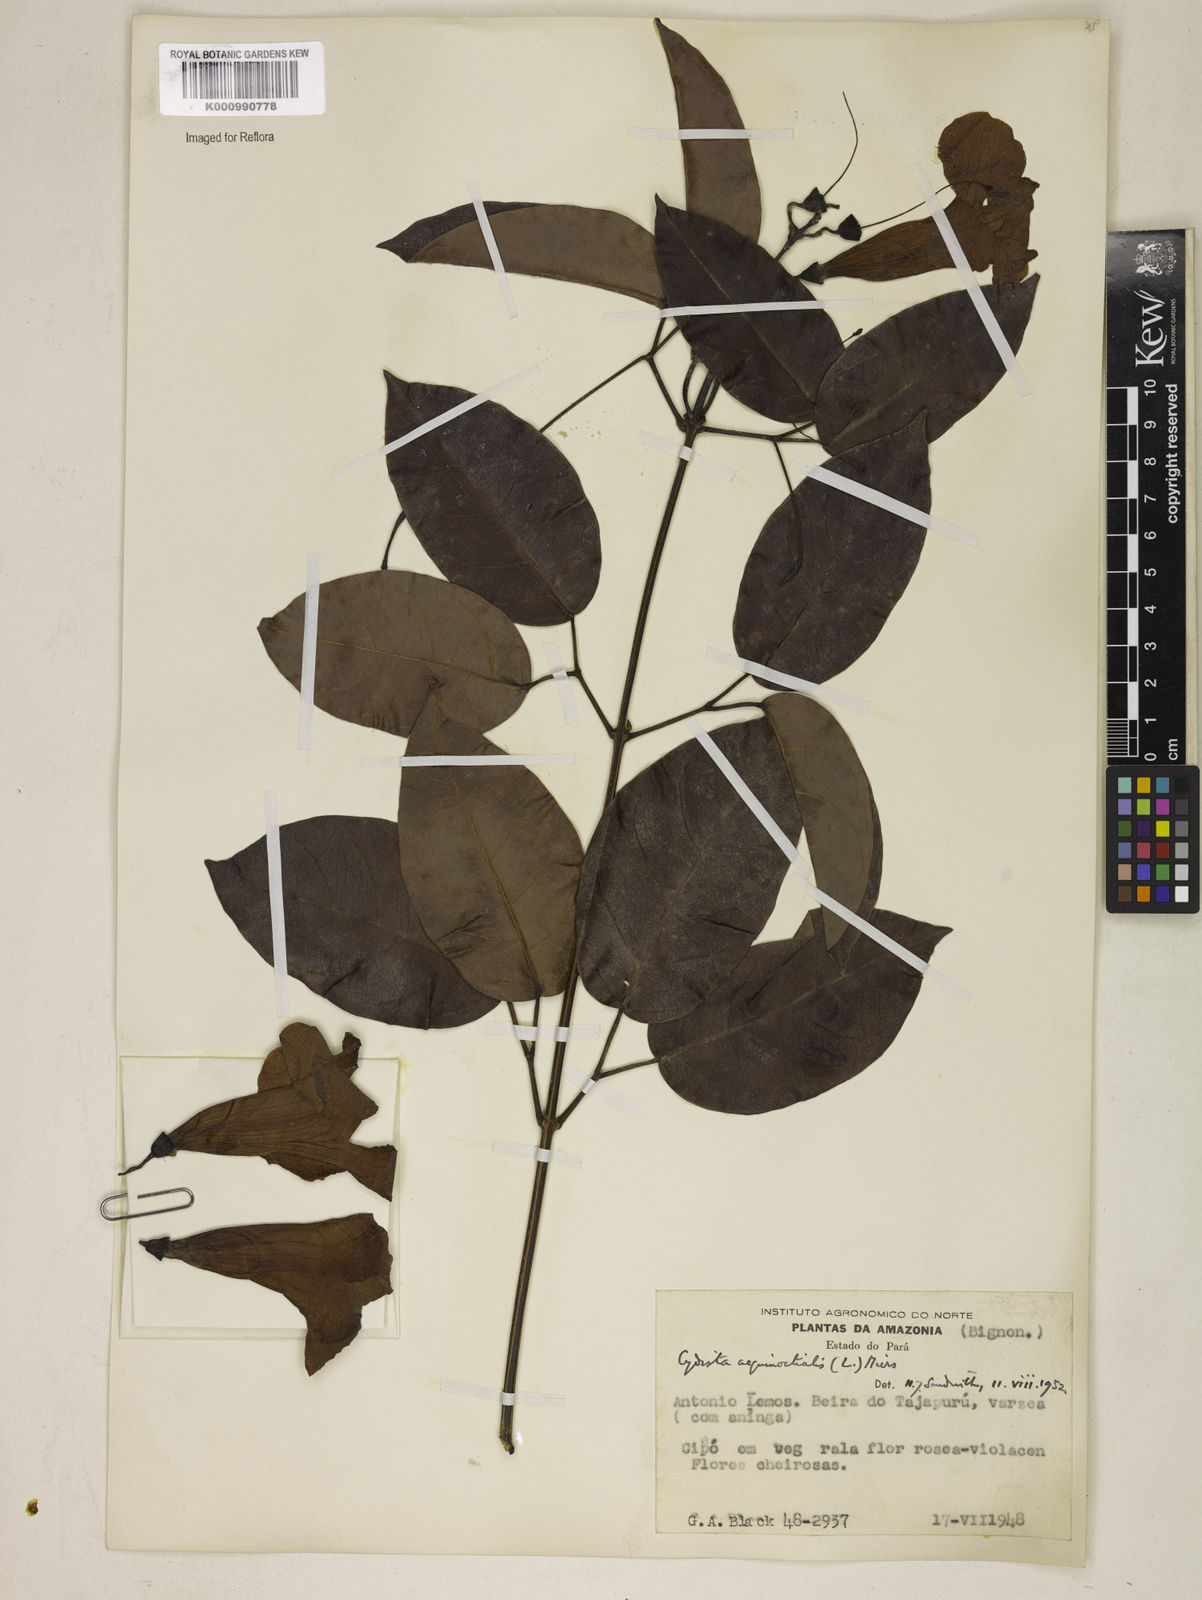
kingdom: Plantae
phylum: Tracheophyta
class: Magnoliopsida
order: Lamiales
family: Bignoniaceae
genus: Bignonia
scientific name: Bignonia aequinoctialis
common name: Garlicvine
